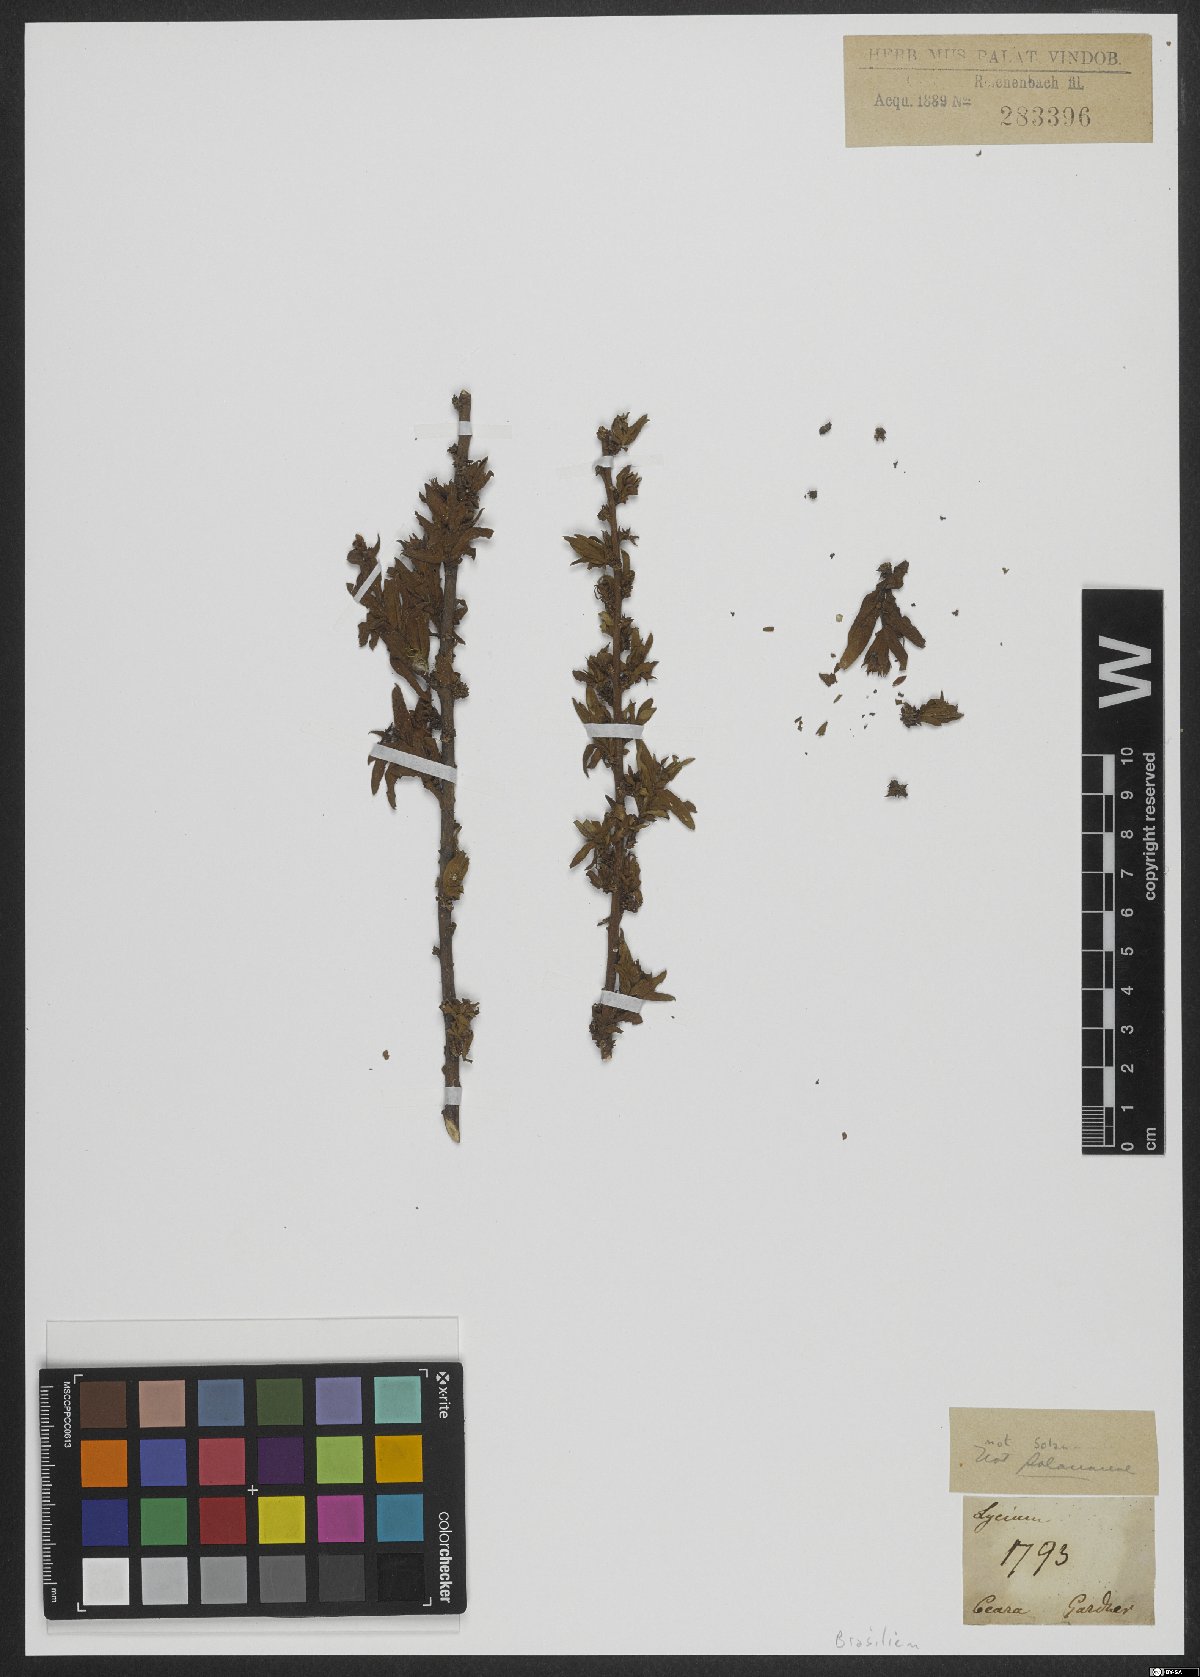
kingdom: Plantae
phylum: Tracheophyta
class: Magnoliopsida
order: Fabales
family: Surianaceae
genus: Suriana
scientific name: Suriana maritima
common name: Bay-cedar
